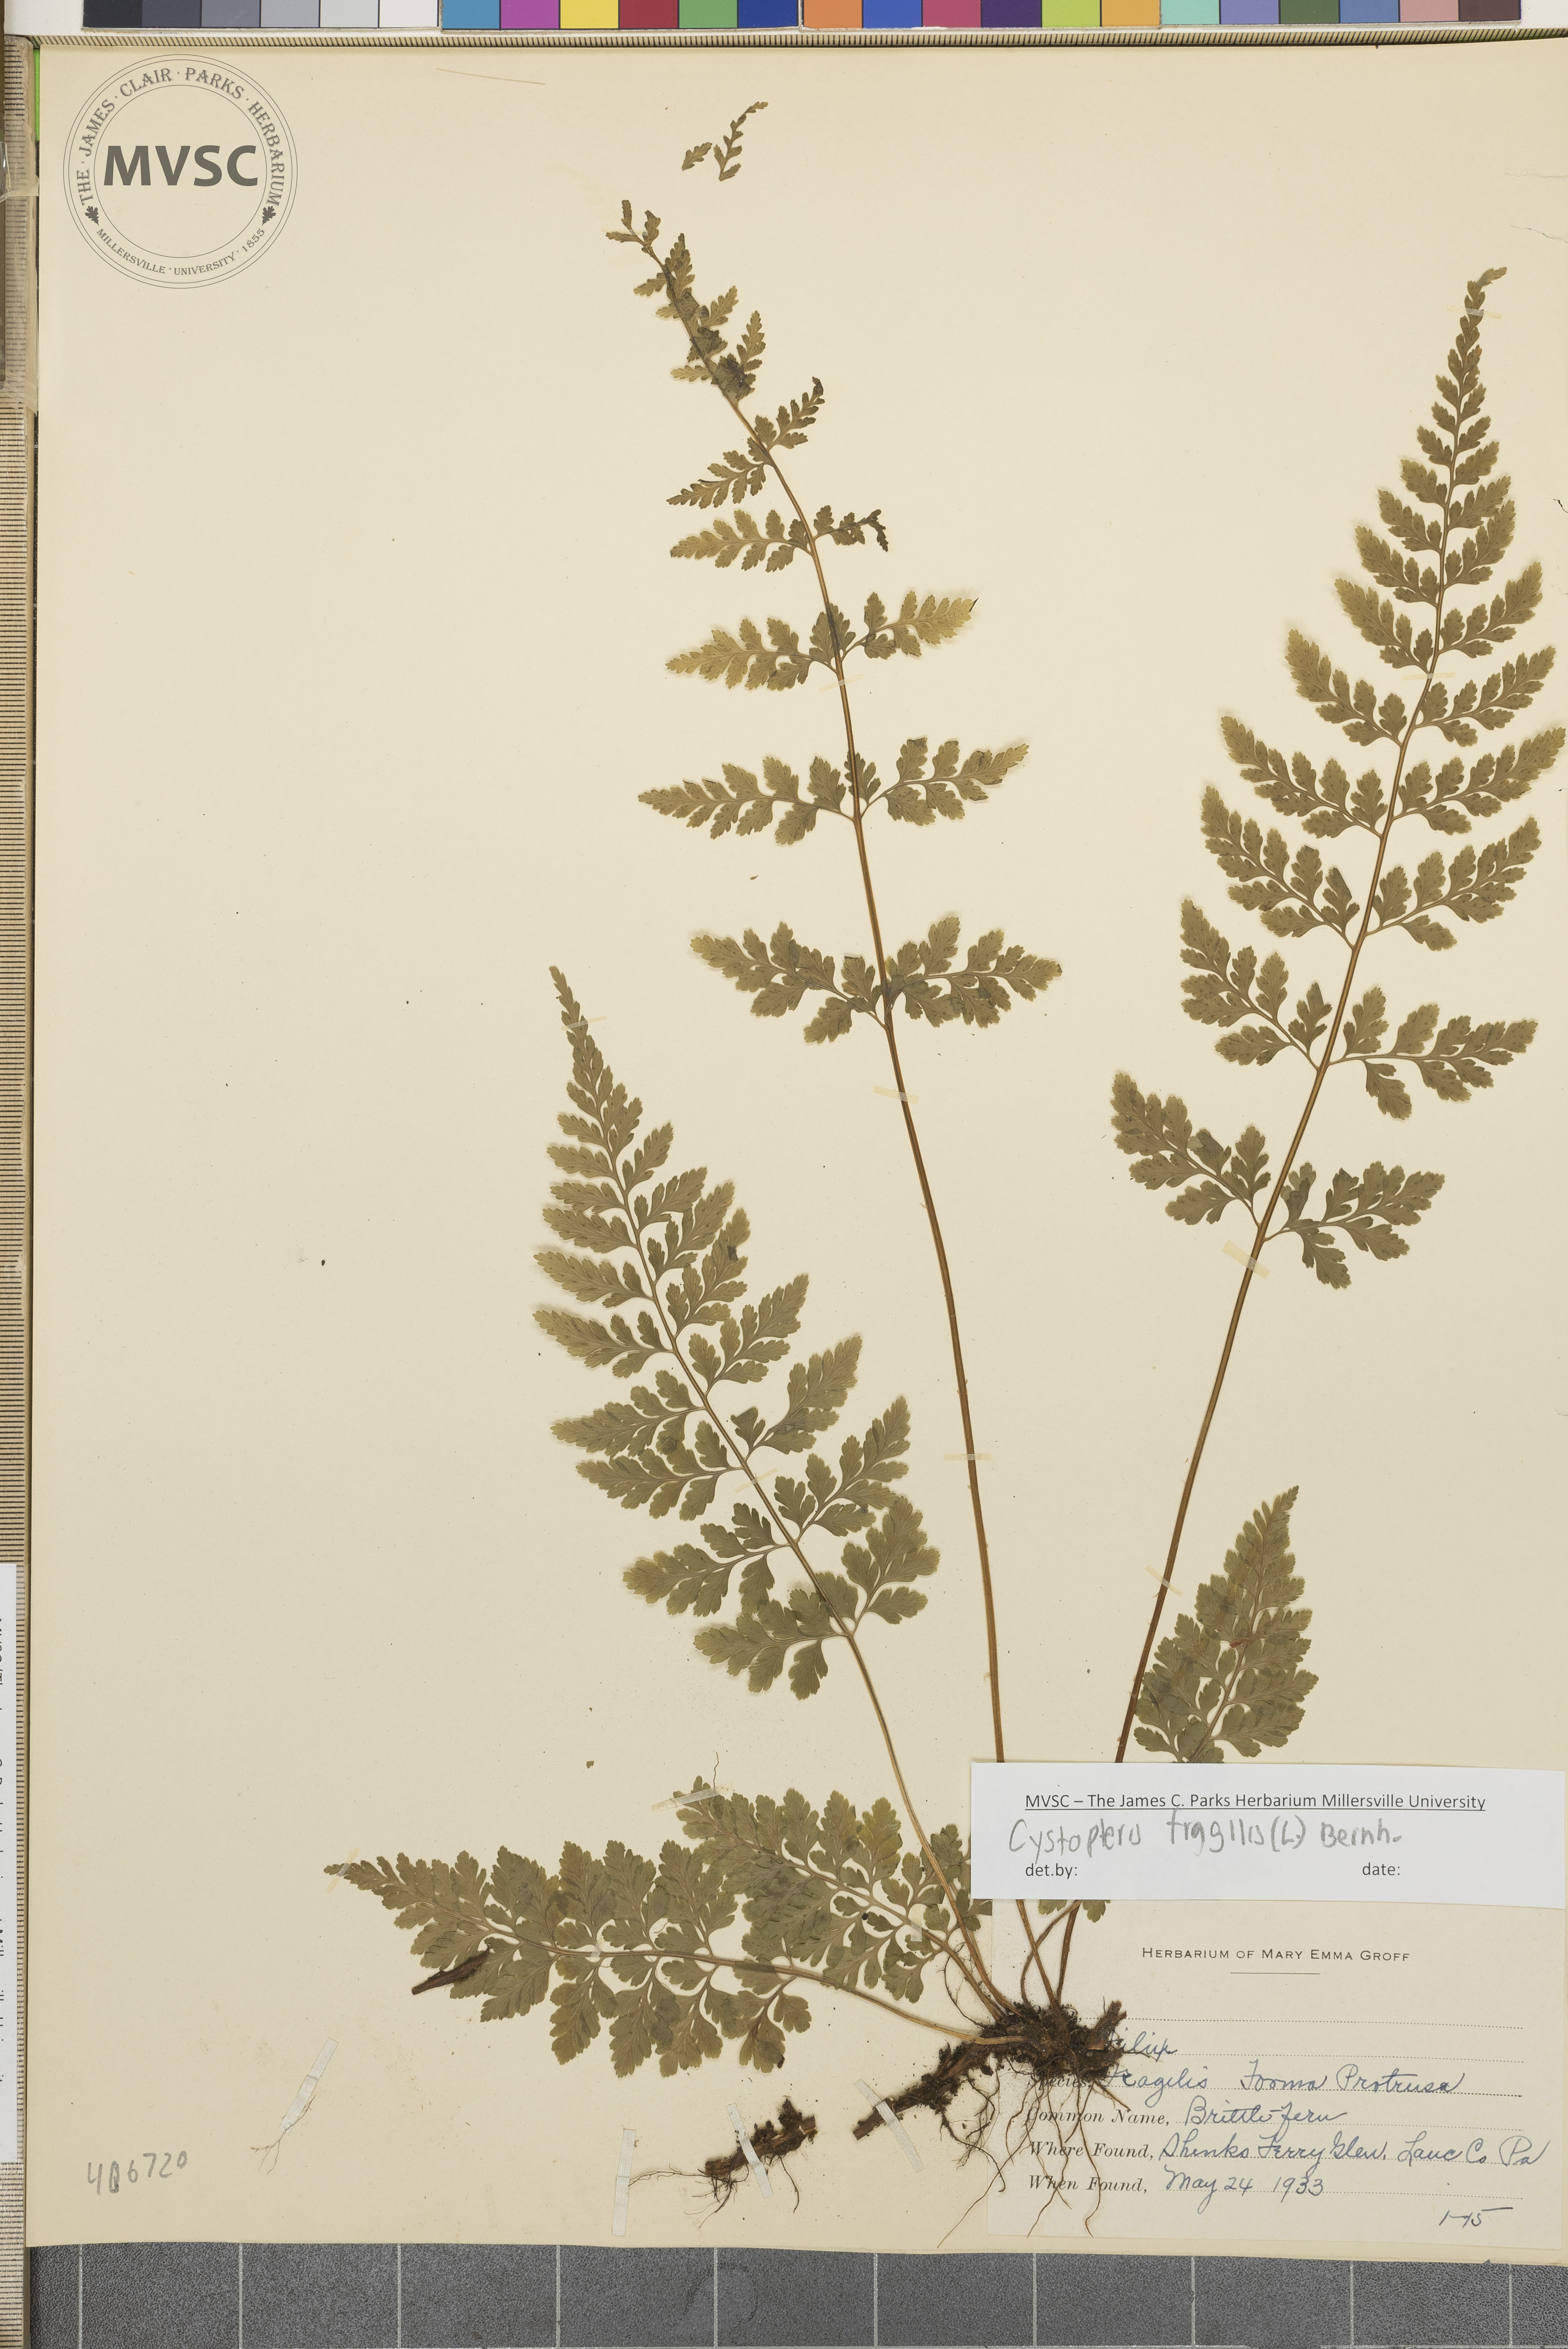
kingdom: Plantae
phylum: Tracheophyta
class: Polypodiopsida
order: Polypodiales
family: Cystopteridaceae
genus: Cystopteris
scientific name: Cystopteris fragilis
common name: Brittle bladder fern
